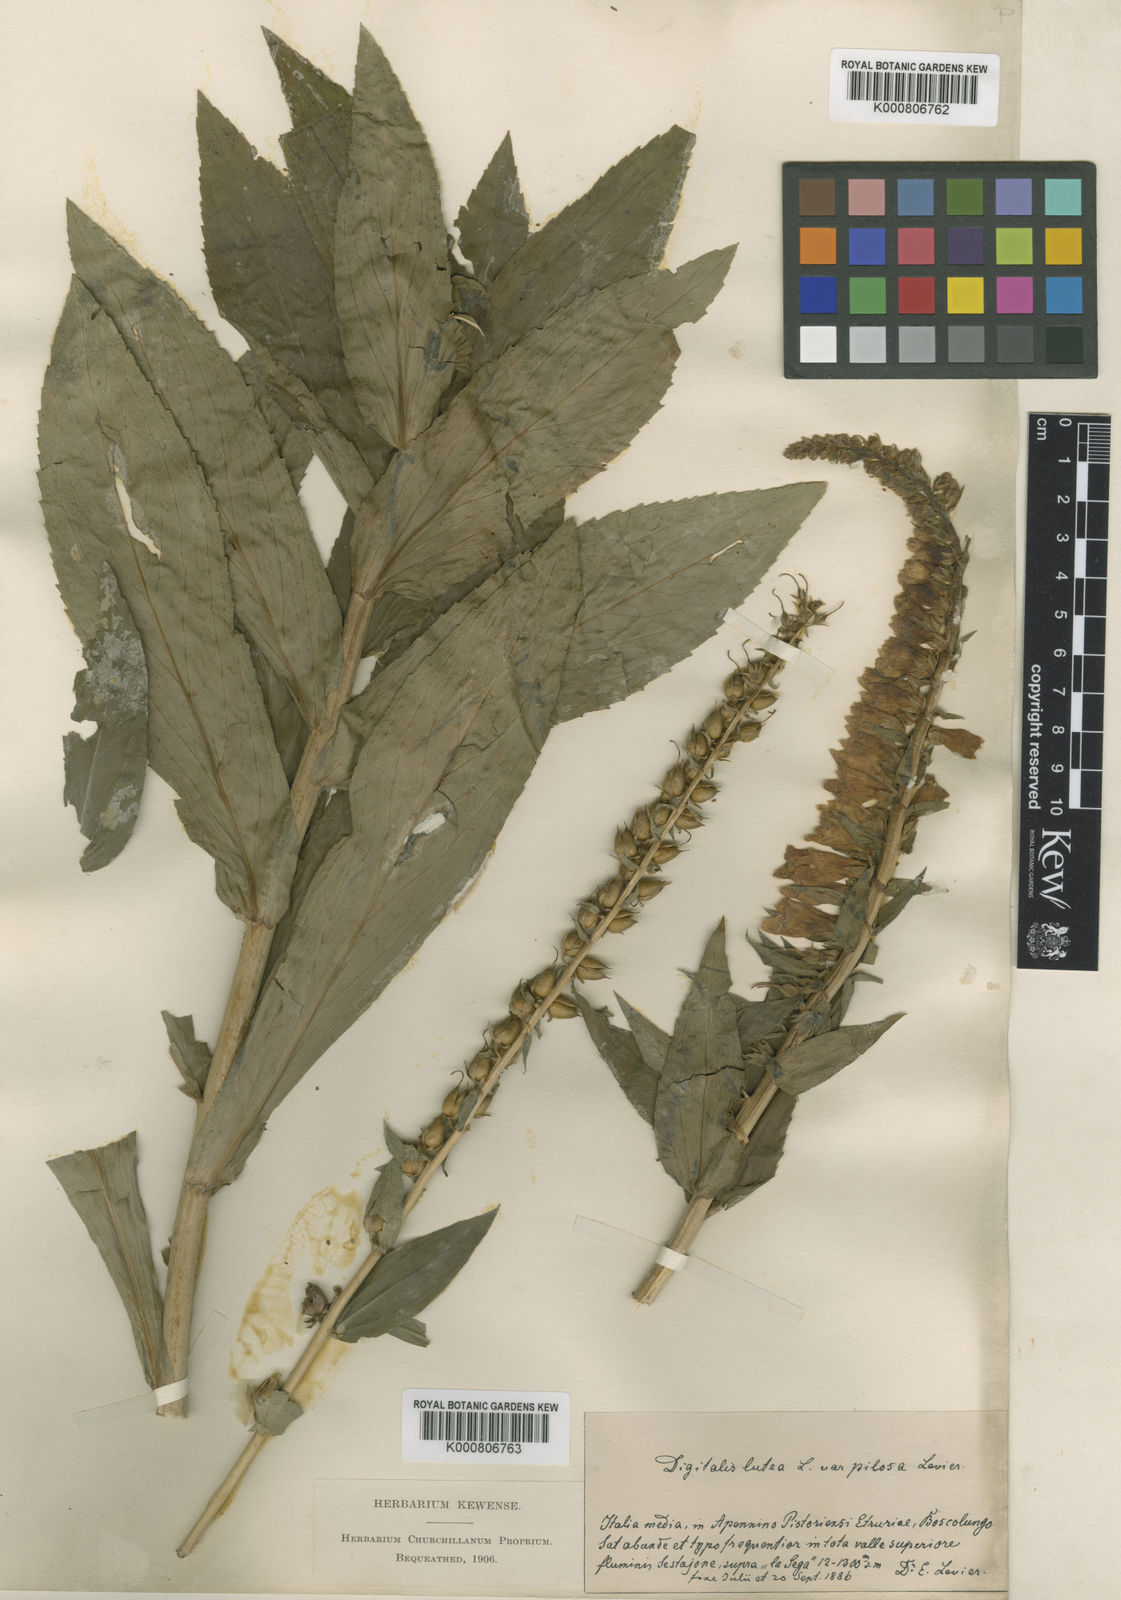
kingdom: Plantae
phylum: Tracheophyta
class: Magnoliopsida
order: Lamiales
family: Plantaginaceae
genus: Digitalis
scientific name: Digitalis lutea
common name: Straw foxglove
